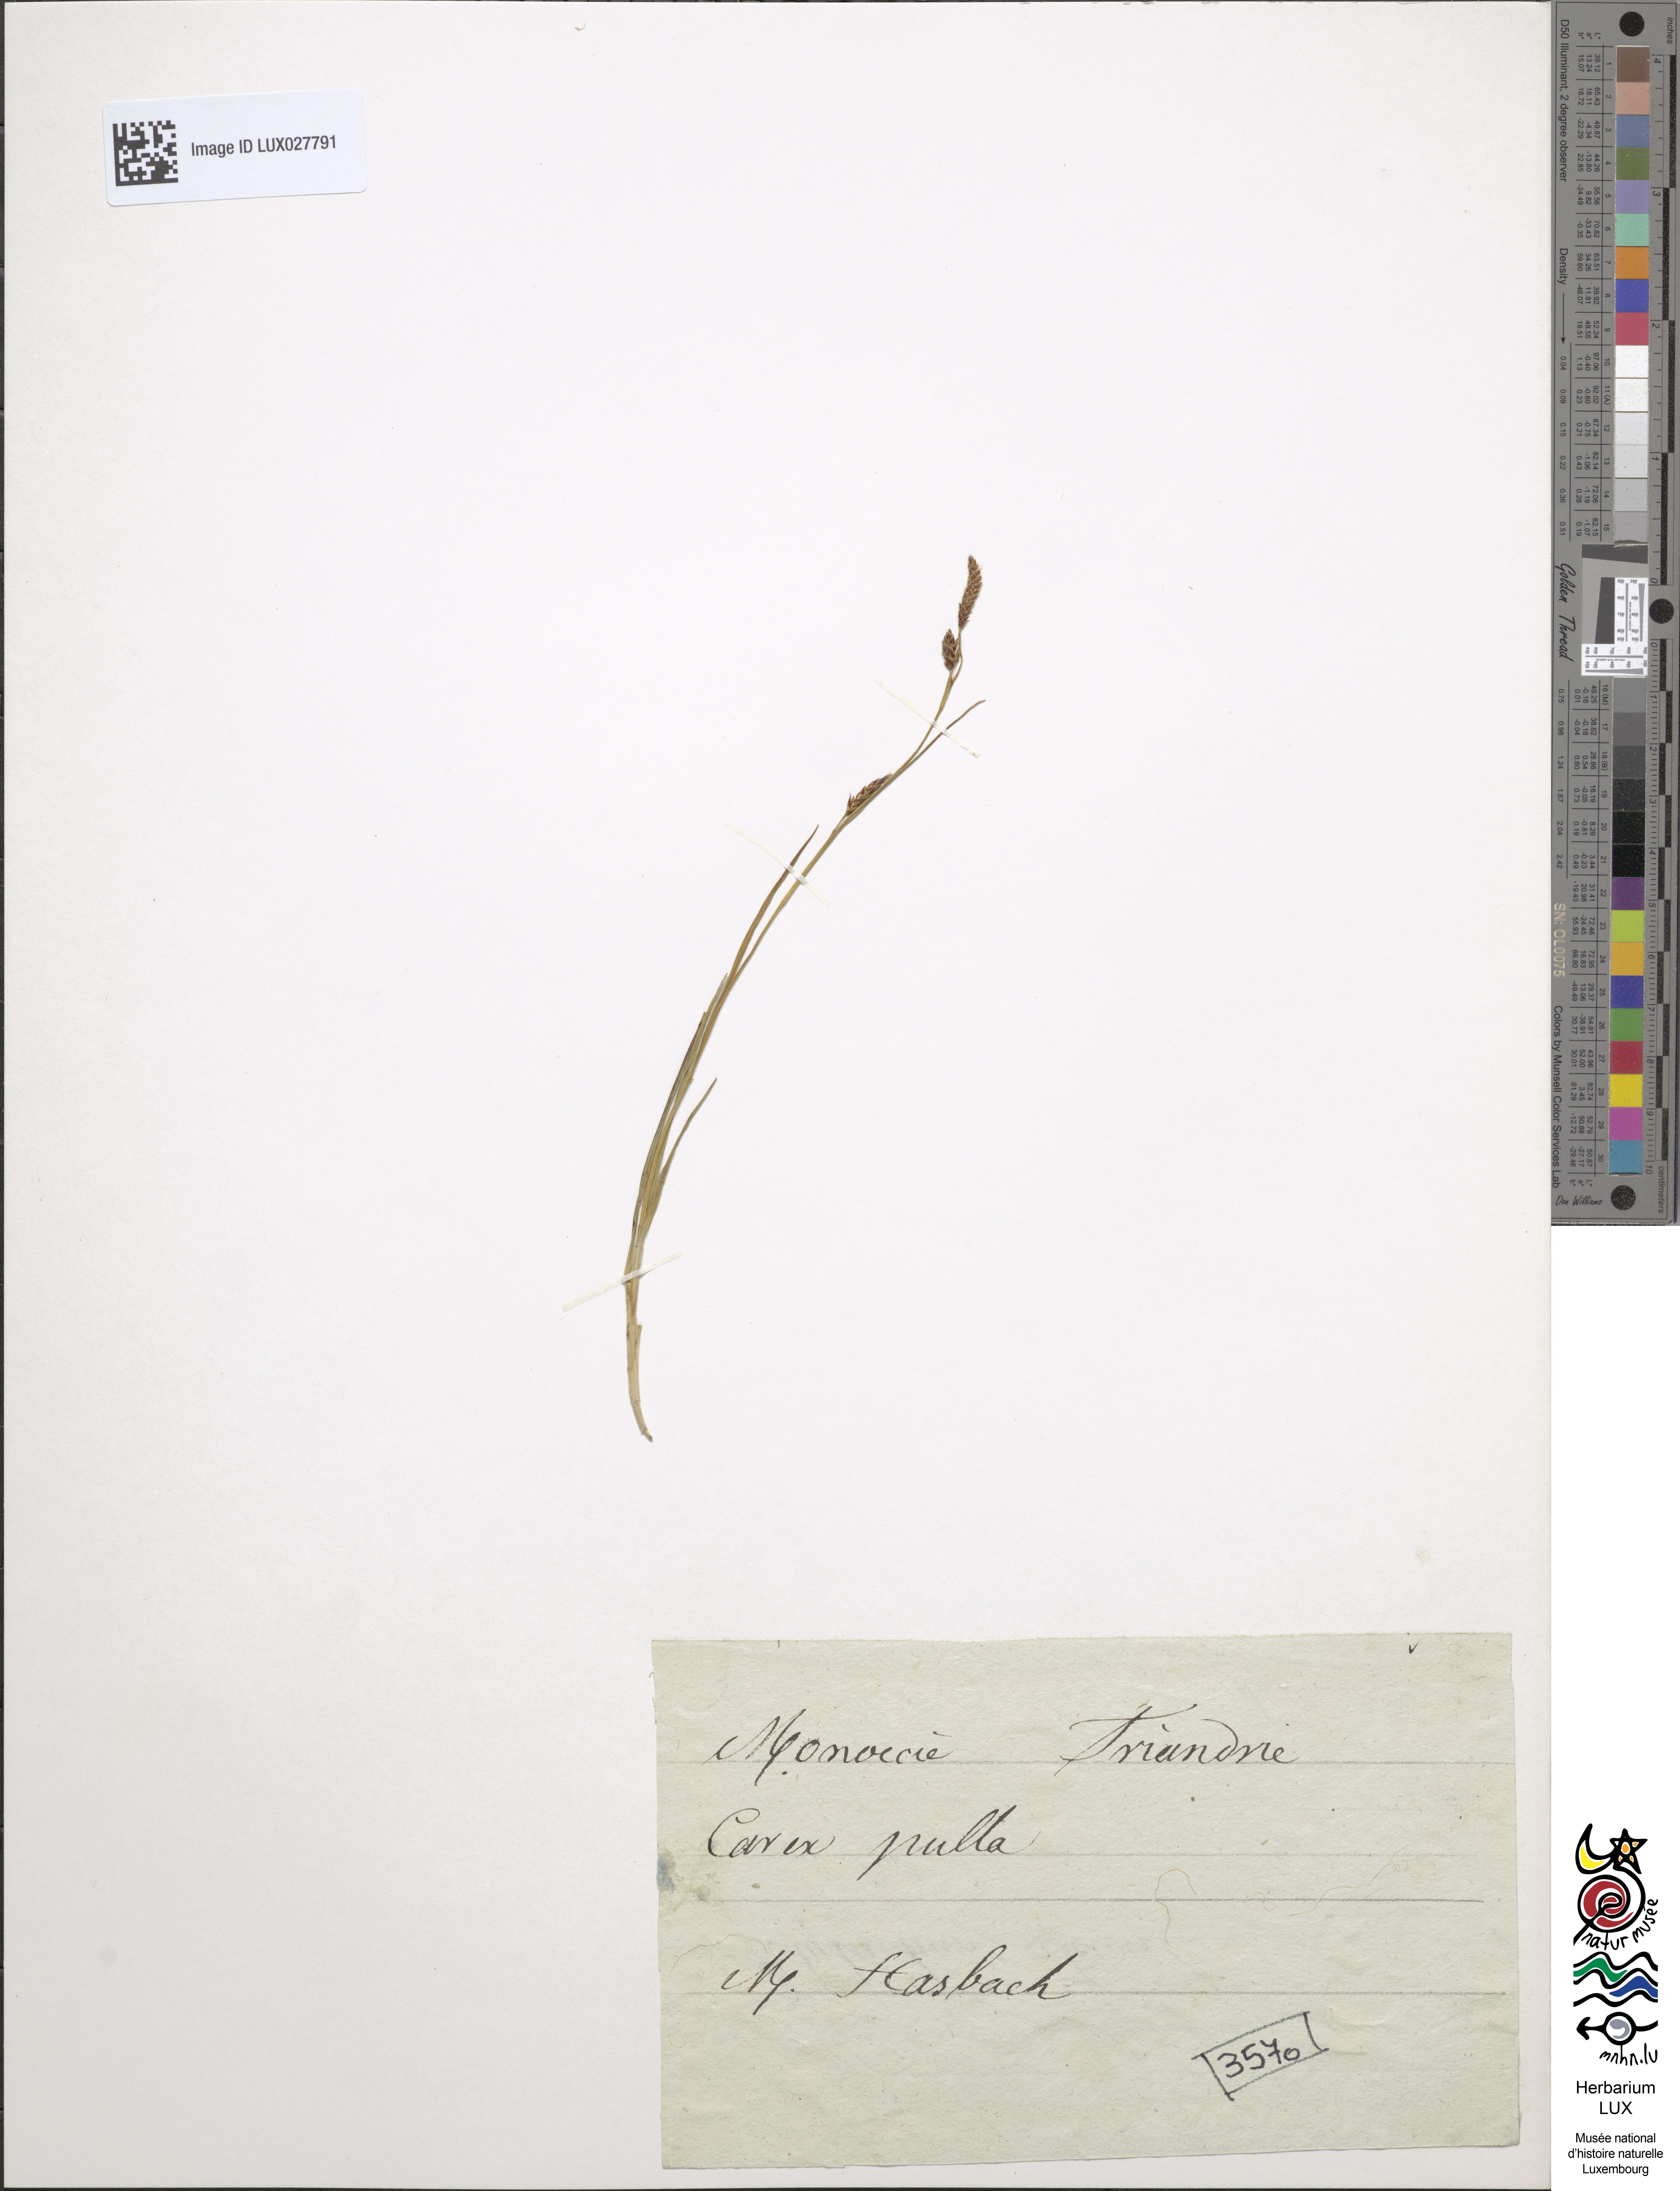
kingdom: Plantae
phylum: Tracheophyta
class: Liliopsida
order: Poales
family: Cyperaceae
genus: Carex
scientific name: Carex saxatilis
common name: Russet sedge
